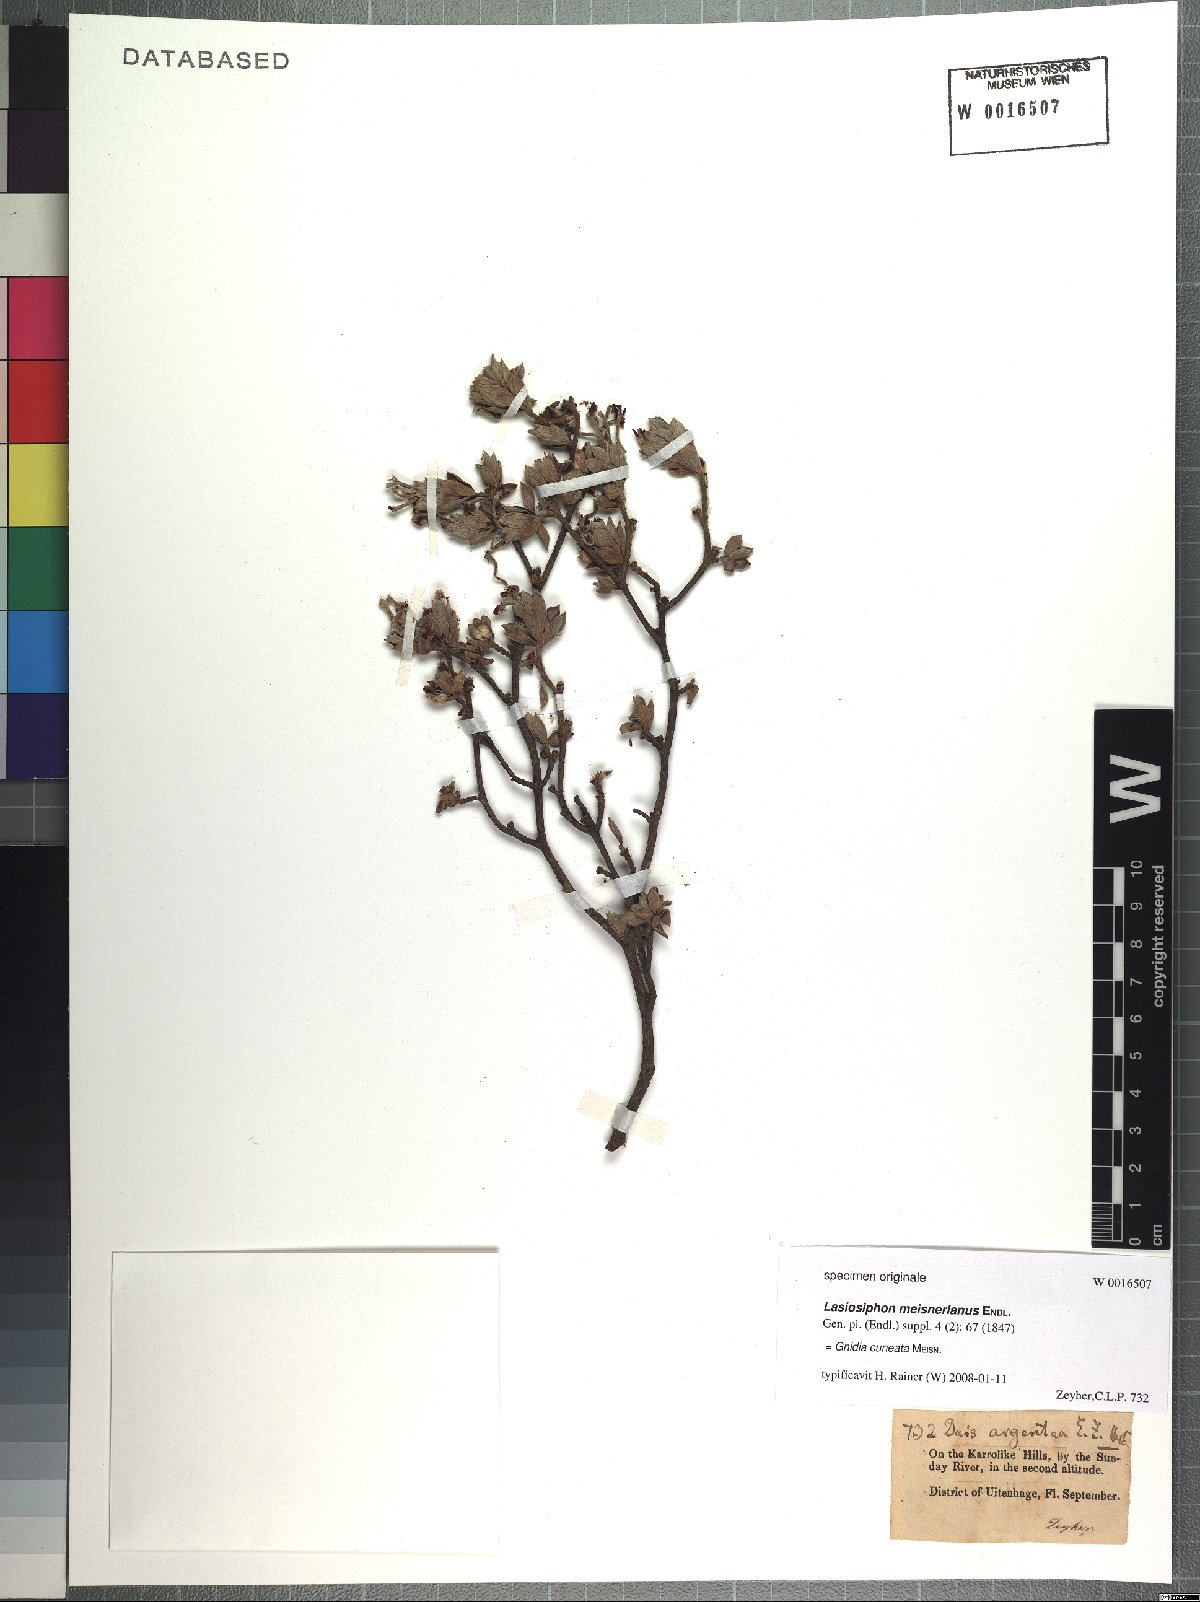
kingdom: Plantae
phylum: Tracheophyta
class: Magnoliopsida
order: Malvales
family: Thymelaeaceae
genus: Gnidia
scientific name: Gnidia cuneata
